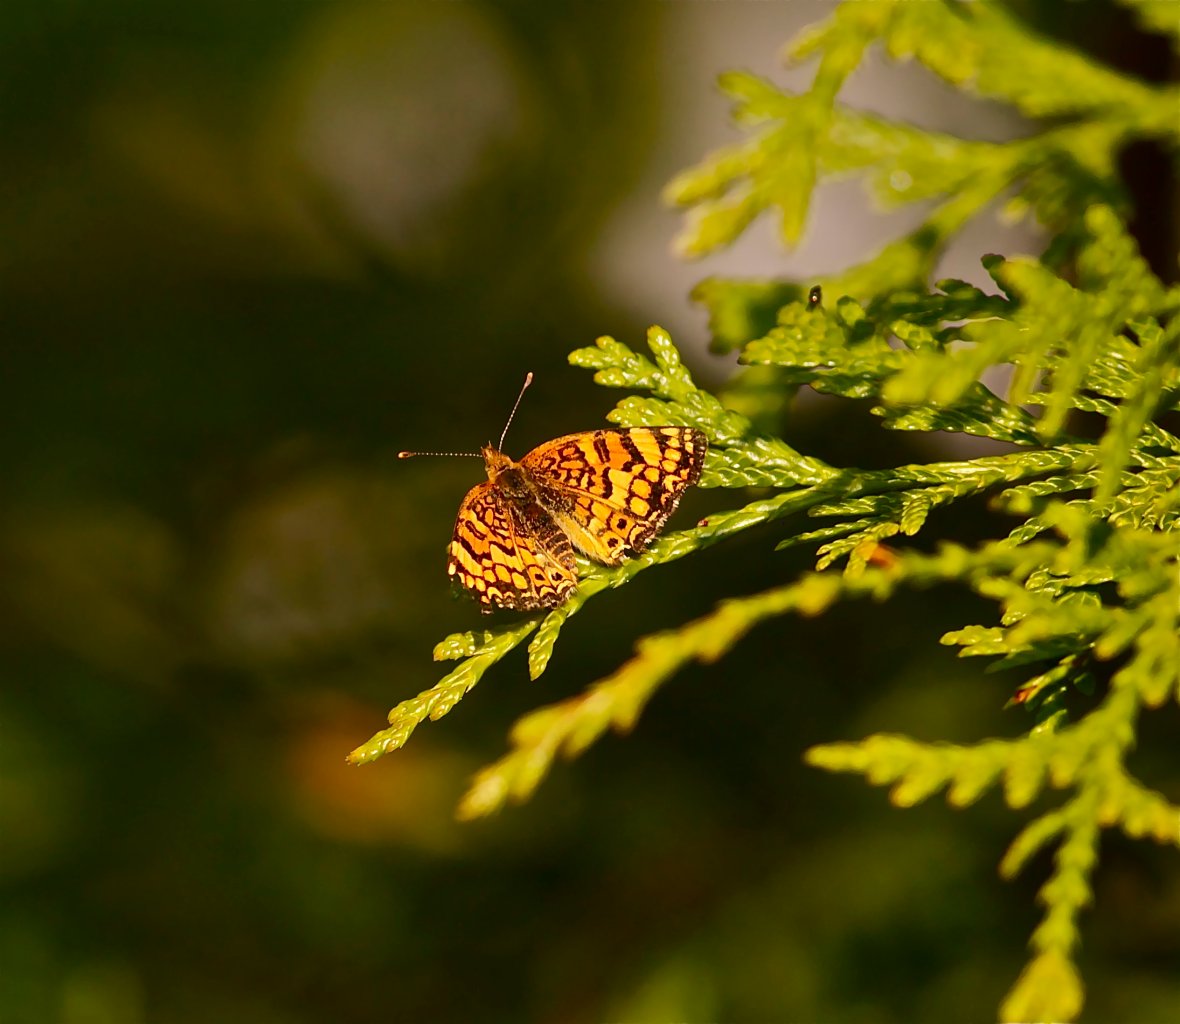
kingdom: Animalia
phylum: Arthropoda
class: Insecta
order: Lepidoptera
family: Nymphalidae
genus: Eresia
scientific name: Eresia aveyrona
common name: Mylitta Crescent
